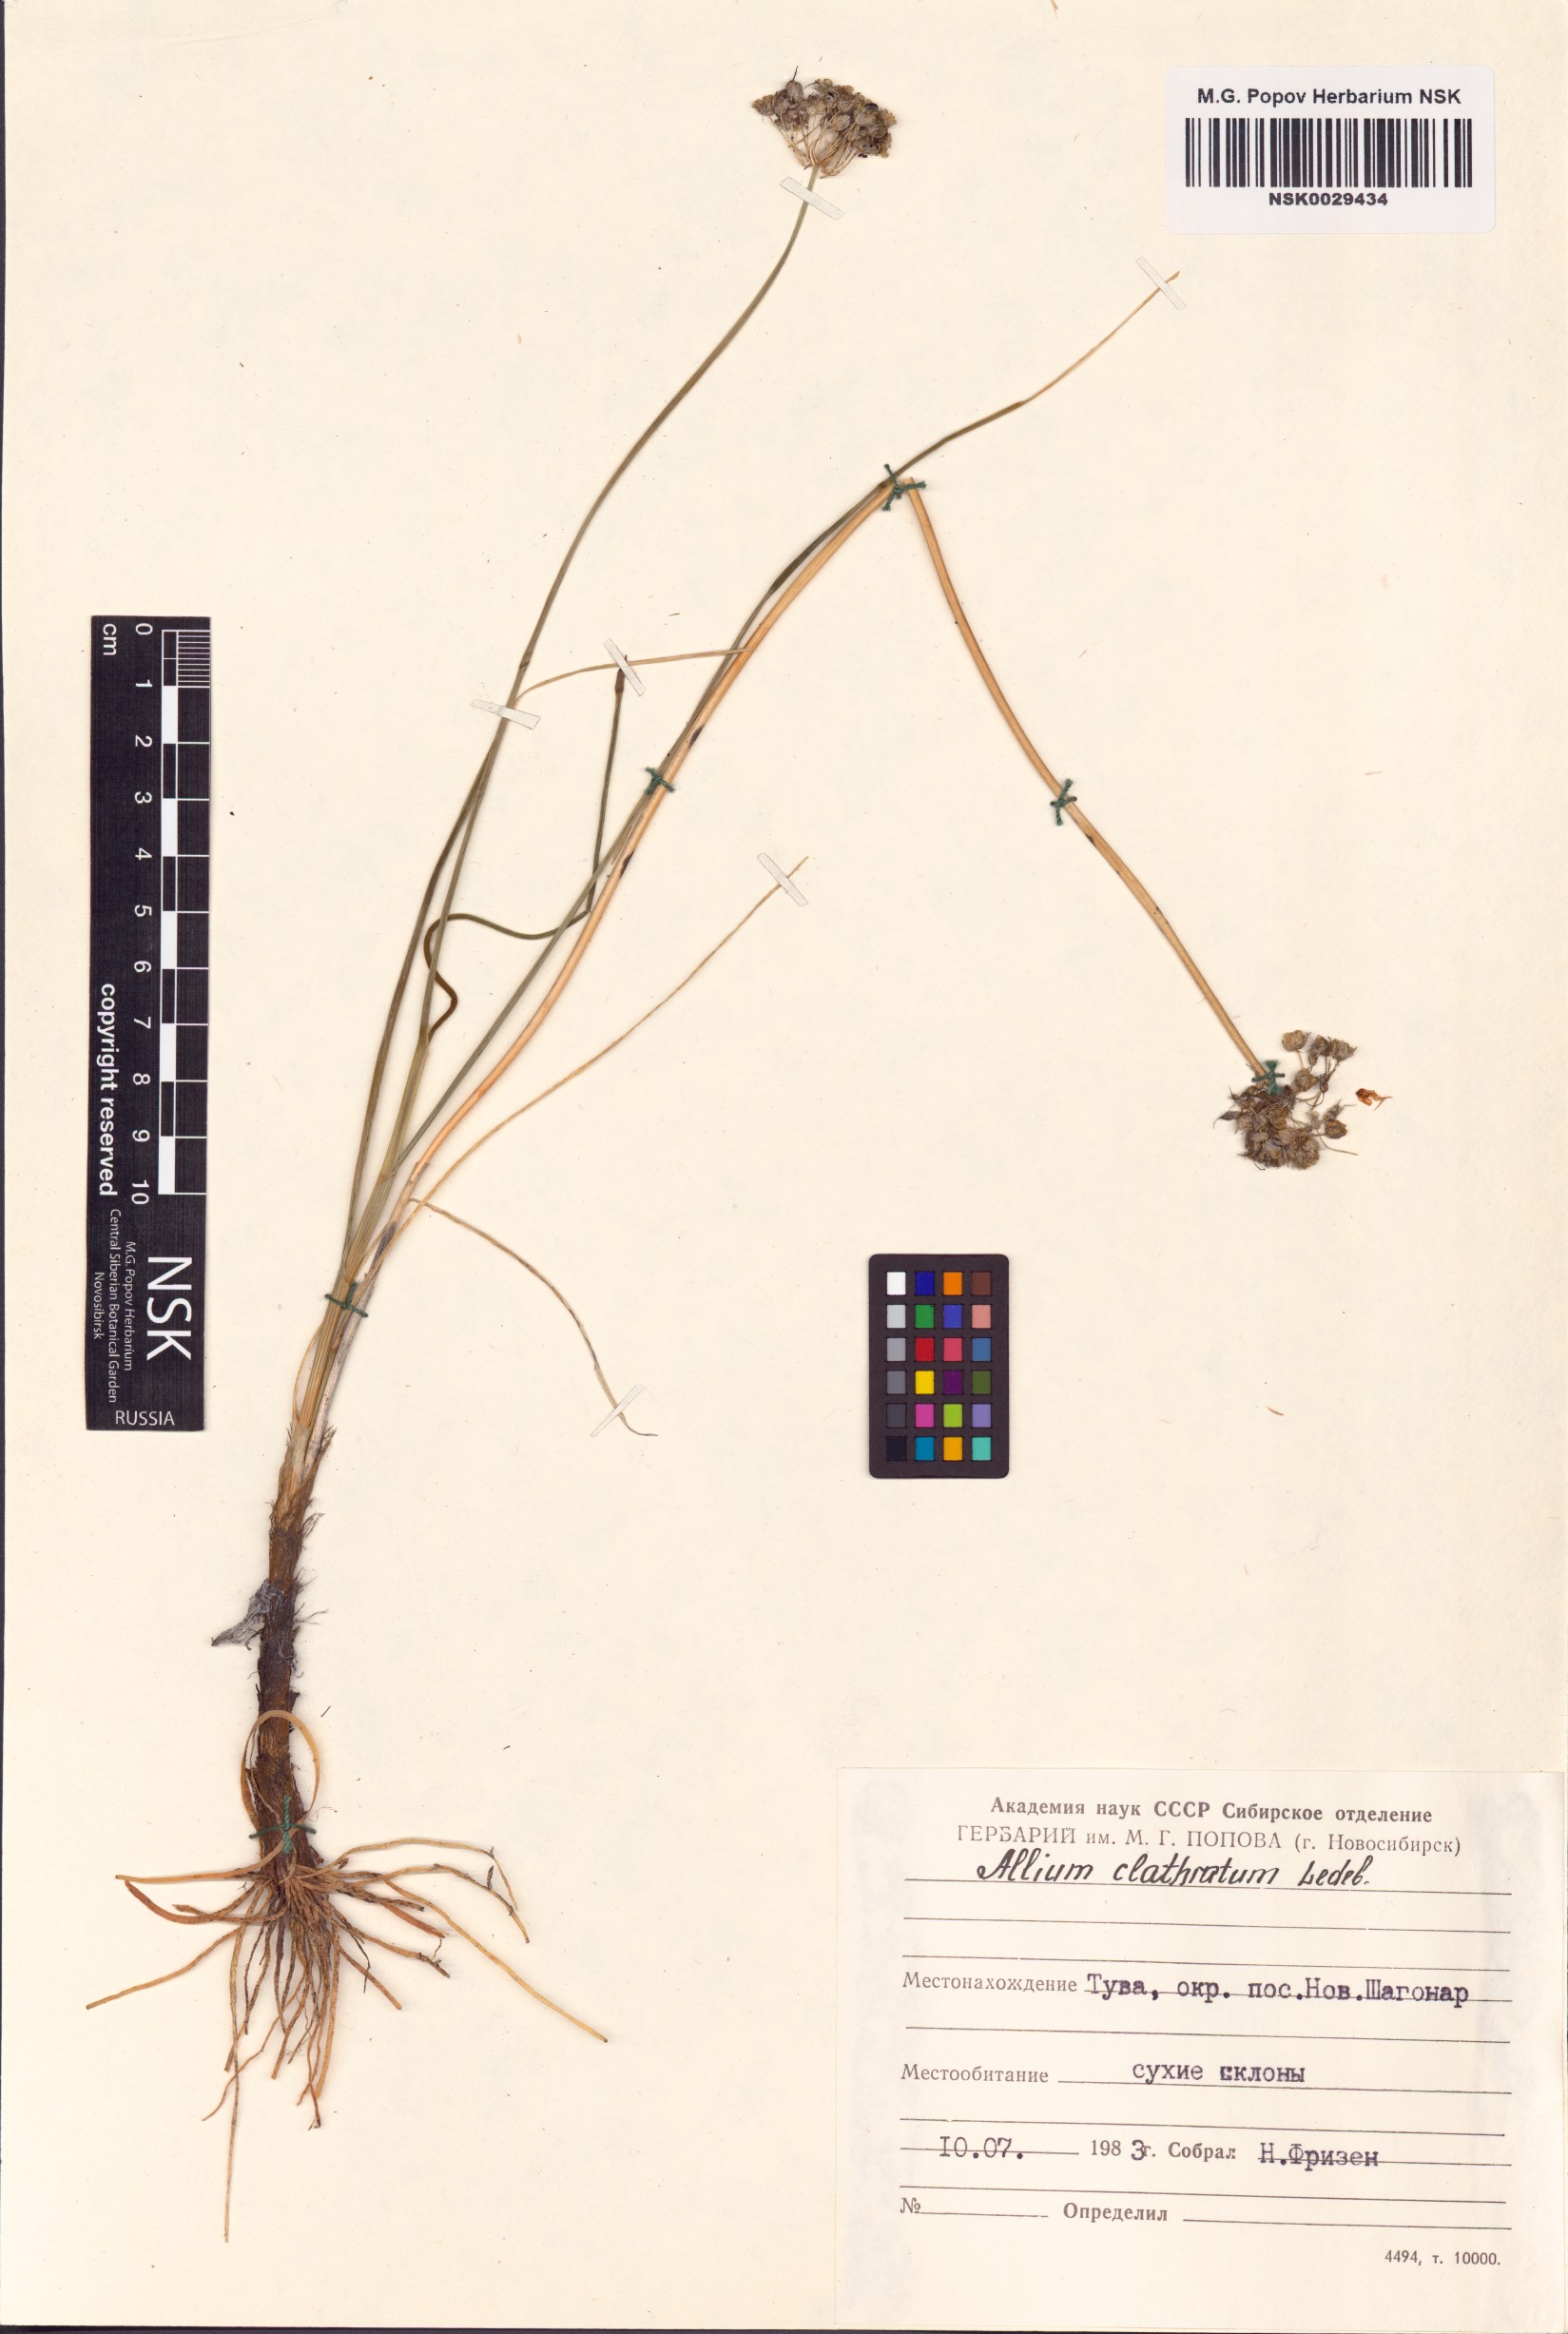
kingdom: Plantae
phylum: Tracheophyta
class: Liliopsida
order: Asparagales
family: Amaryllidaceae
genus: Allium
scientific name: Allium clathratum
